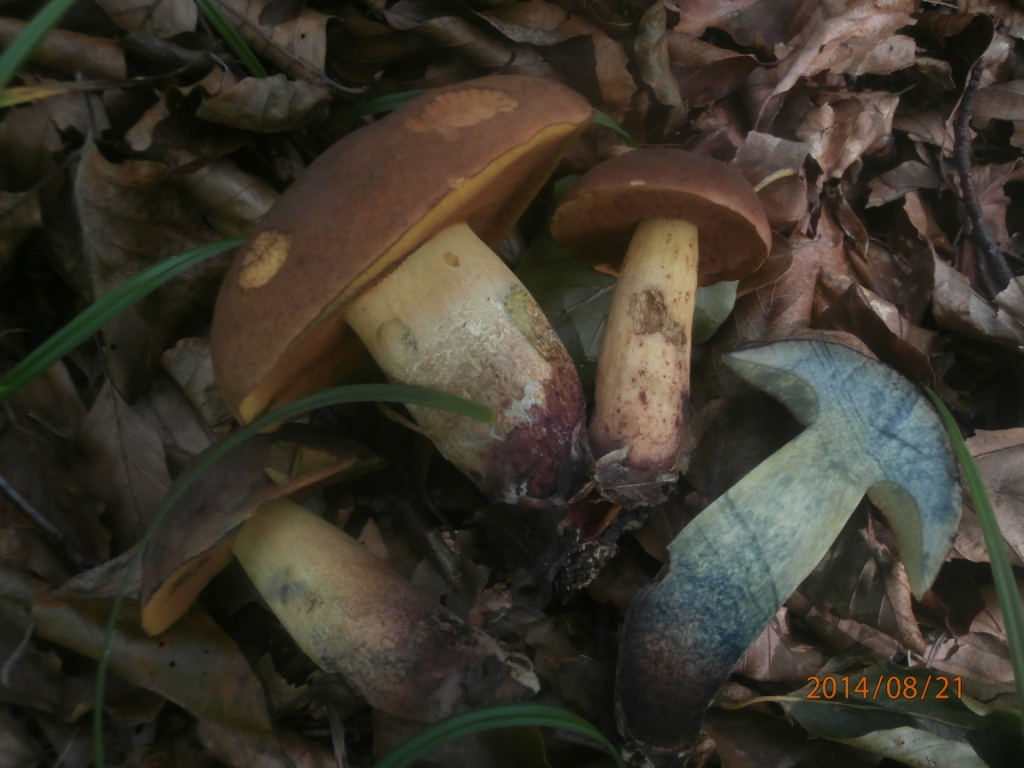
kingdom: Fungi
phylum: Basidiomycota
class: Agaricomycetes
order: Boletales
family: Boletaceae
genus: Suillellus
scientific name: Suillellus queletii
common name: glatstokket indigorørhat
